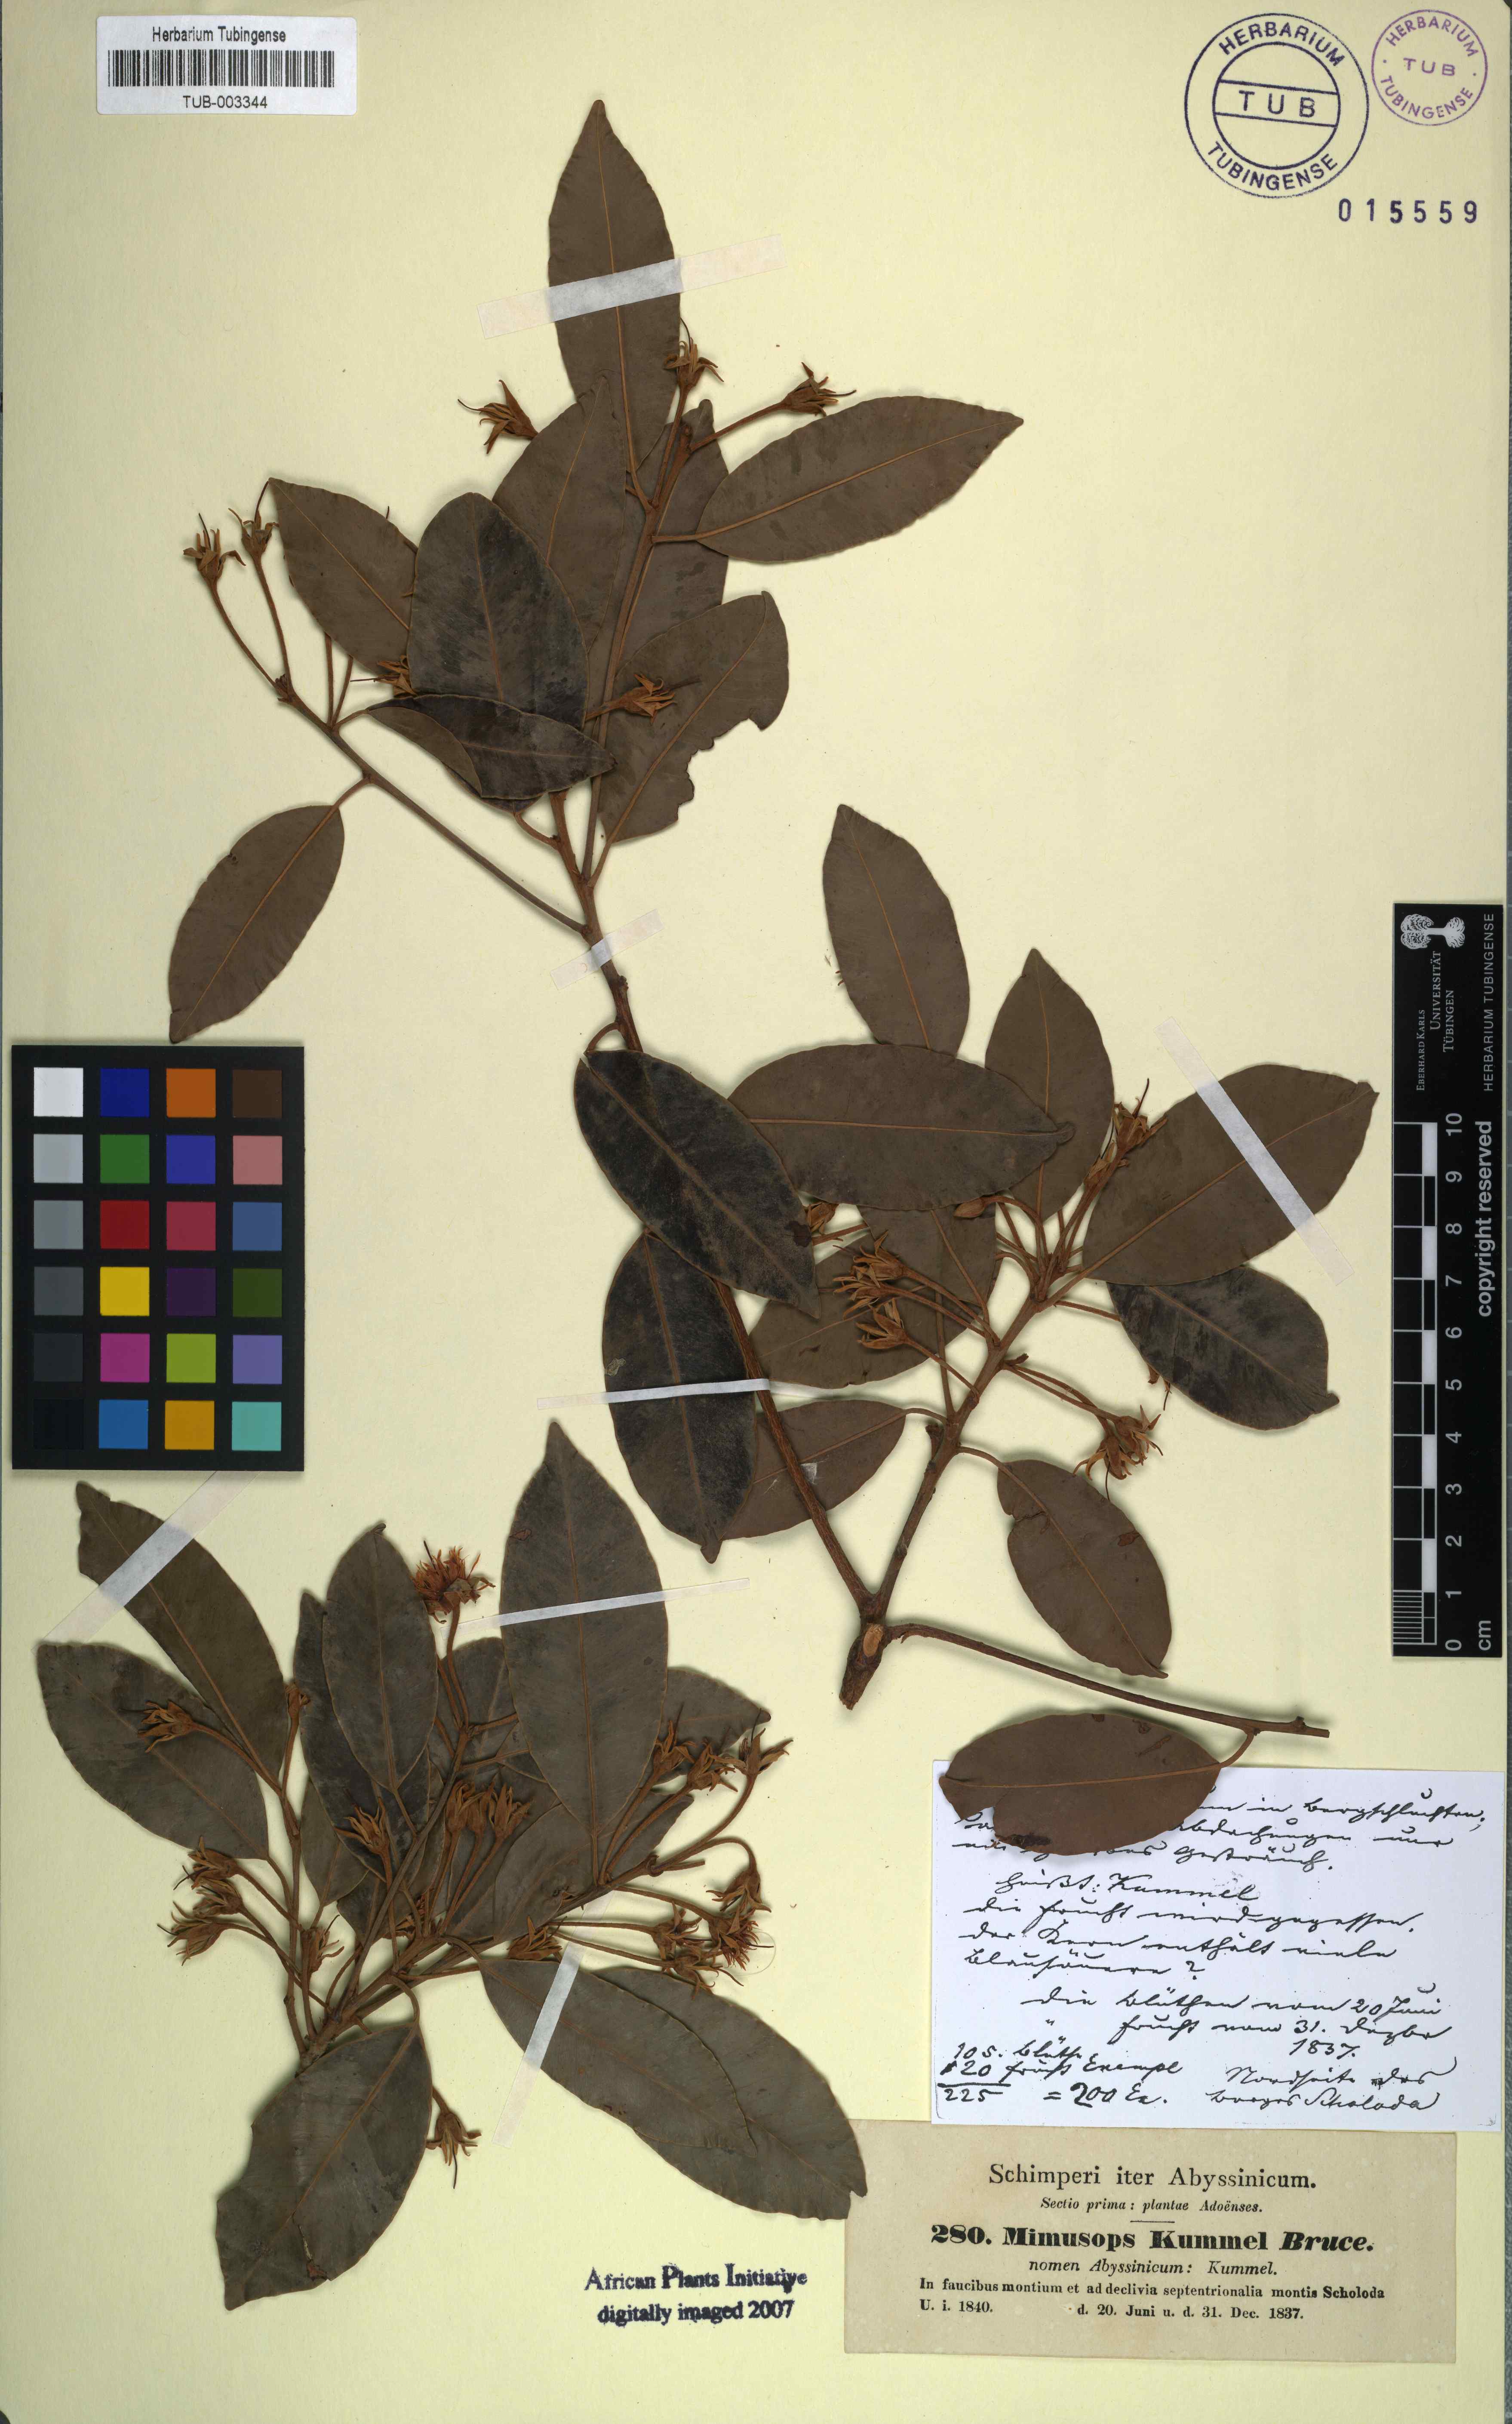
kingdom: Plantae
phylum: Tracheophyta
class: Magnoliopsida
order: Ericales
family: Sapotaceae
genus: Mimusops
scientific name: Mimusops kummel
